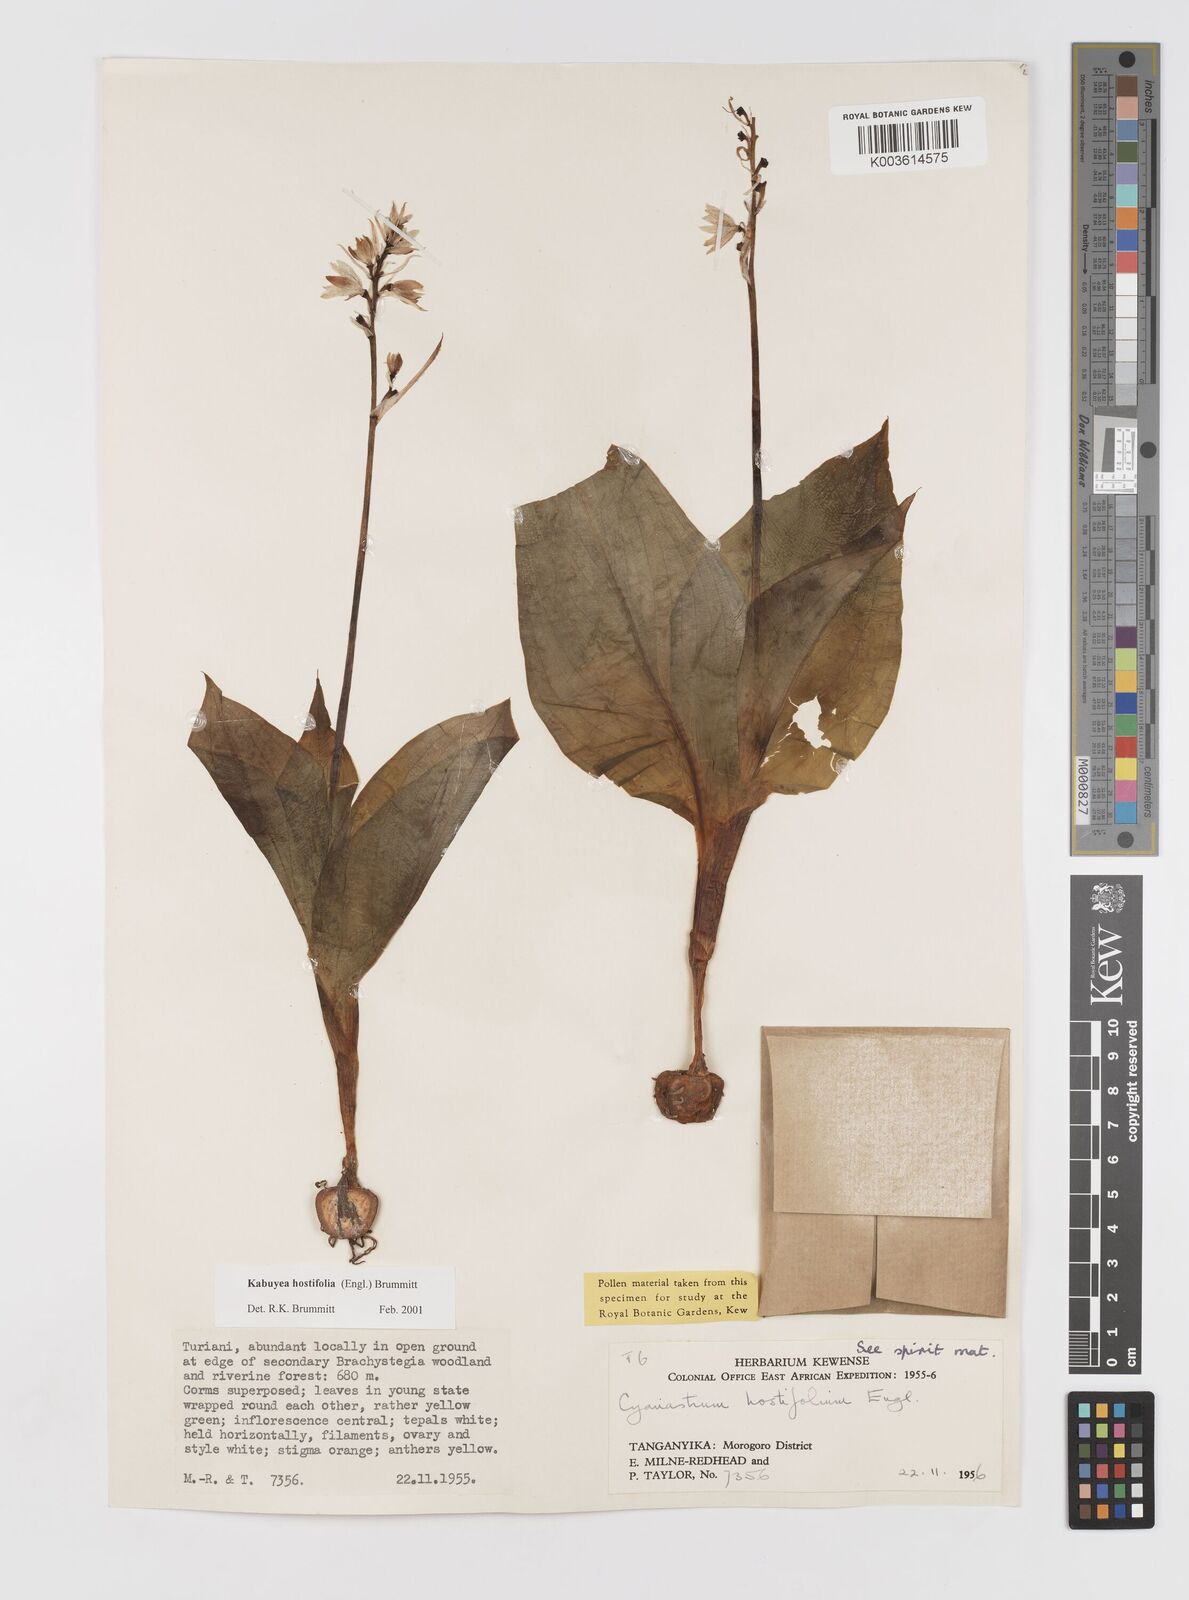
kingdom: Plantae
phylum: Tracheophyta
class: Liliopsida
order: Asparagales
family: Tecophilaeaceae
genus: Kabuyea
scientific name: Kabuyea hostifolia
